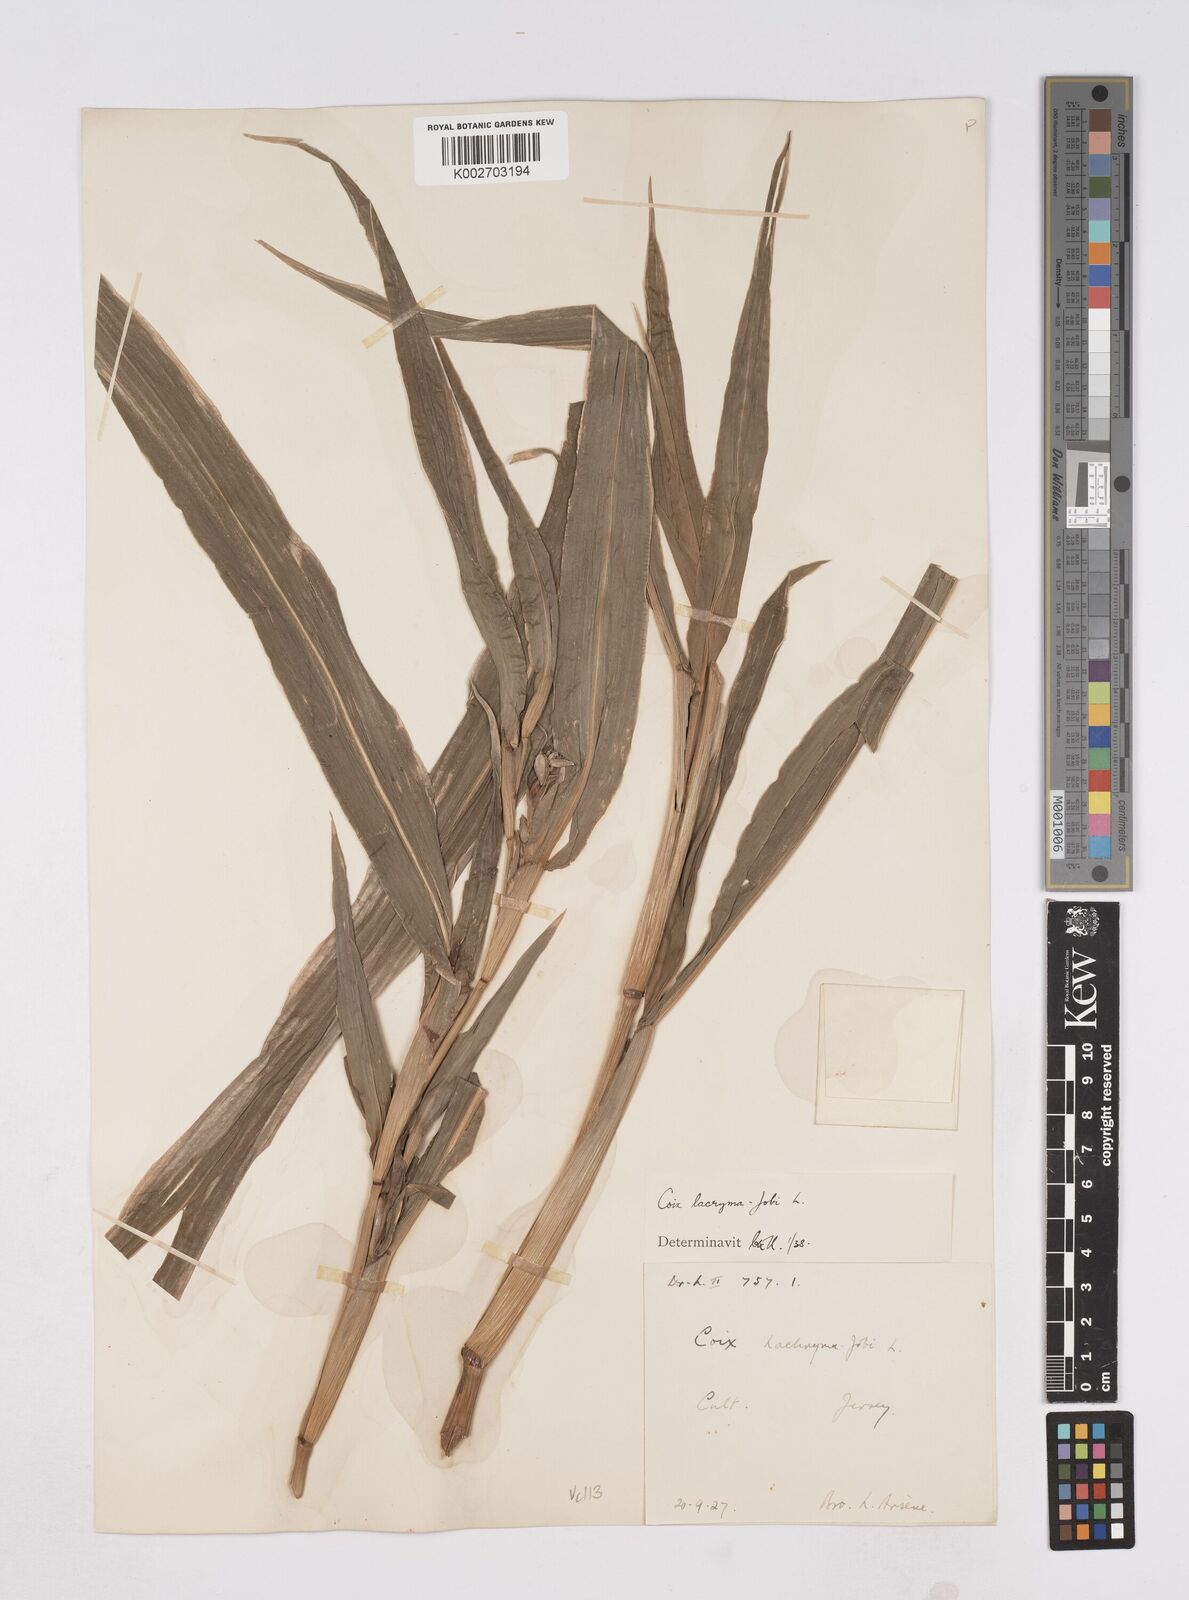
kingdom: Plantae
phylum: Tracheophyta
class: Liliopsida
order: Poales
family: Poaceae
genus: Coix
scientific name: Coix lacryma-jobi
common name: Job's tears
